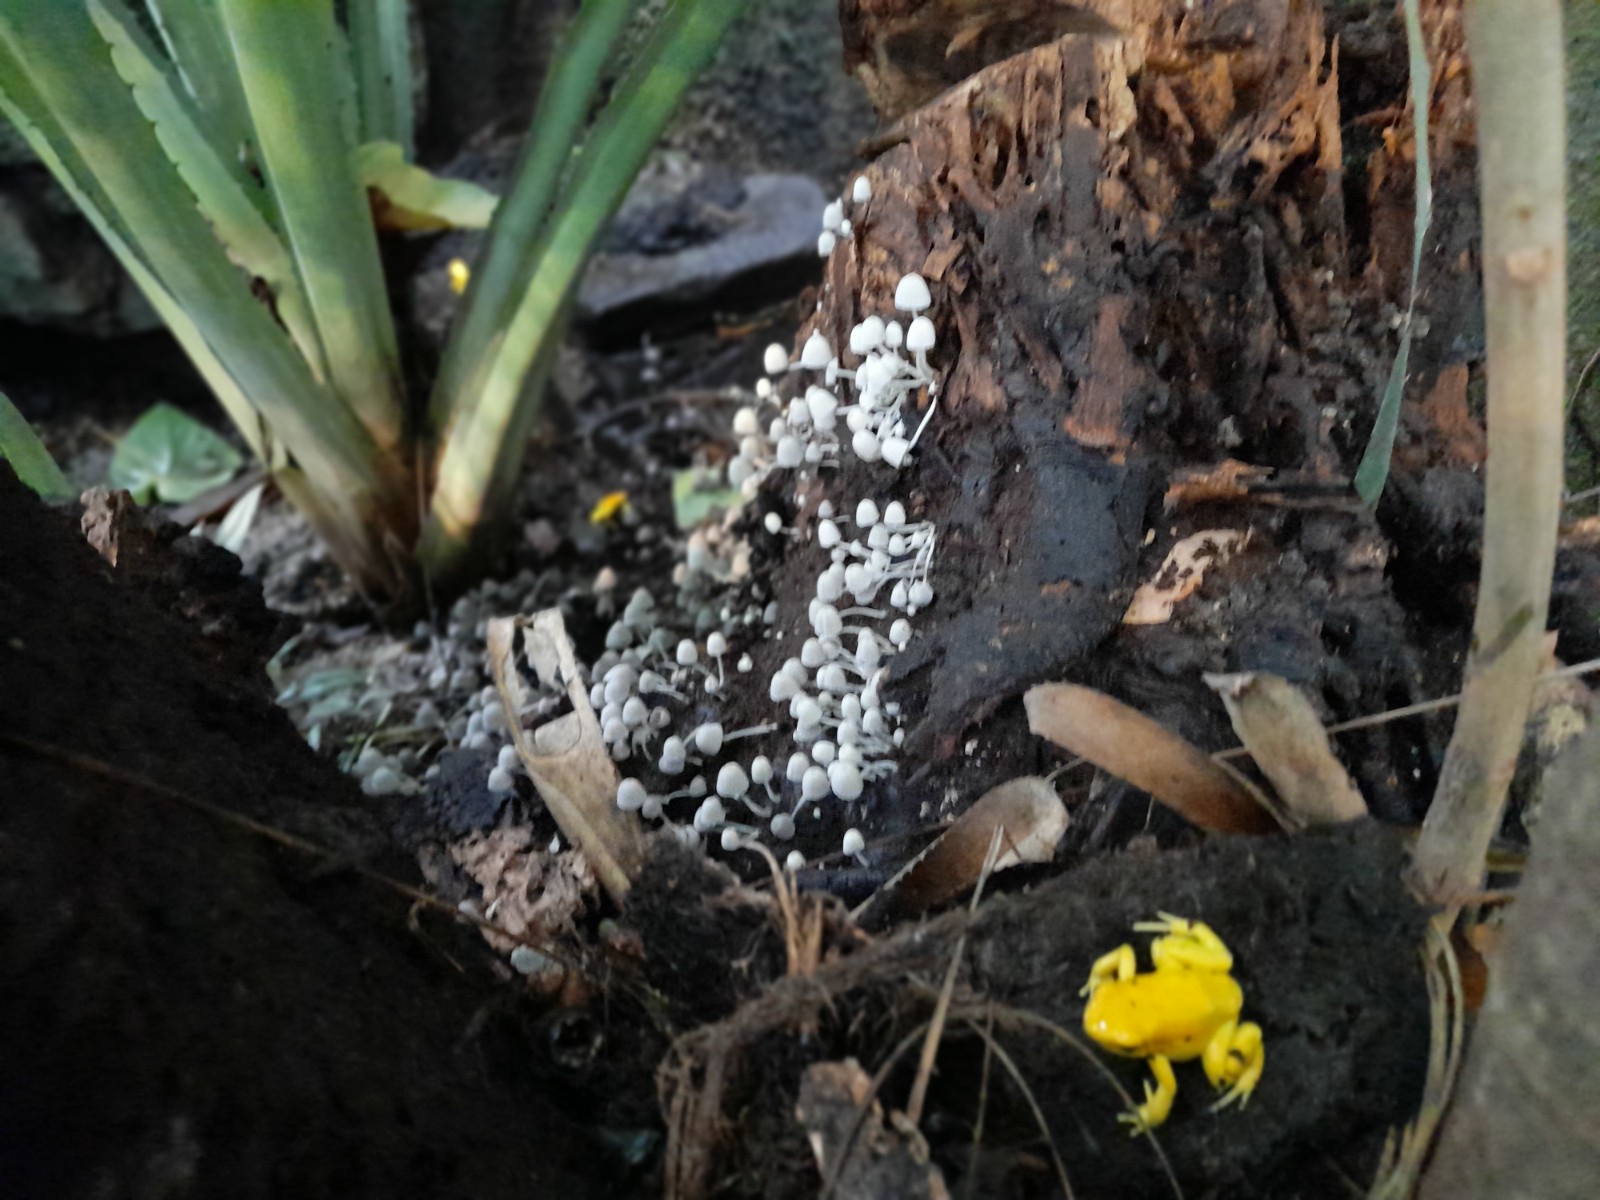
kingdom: Fungi
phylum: Basidiomycota
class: Agaricomycetes
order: Agaricales
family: Psathyrellaceae
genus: Coprinellus
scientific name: Coprinellus
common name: blækhat
